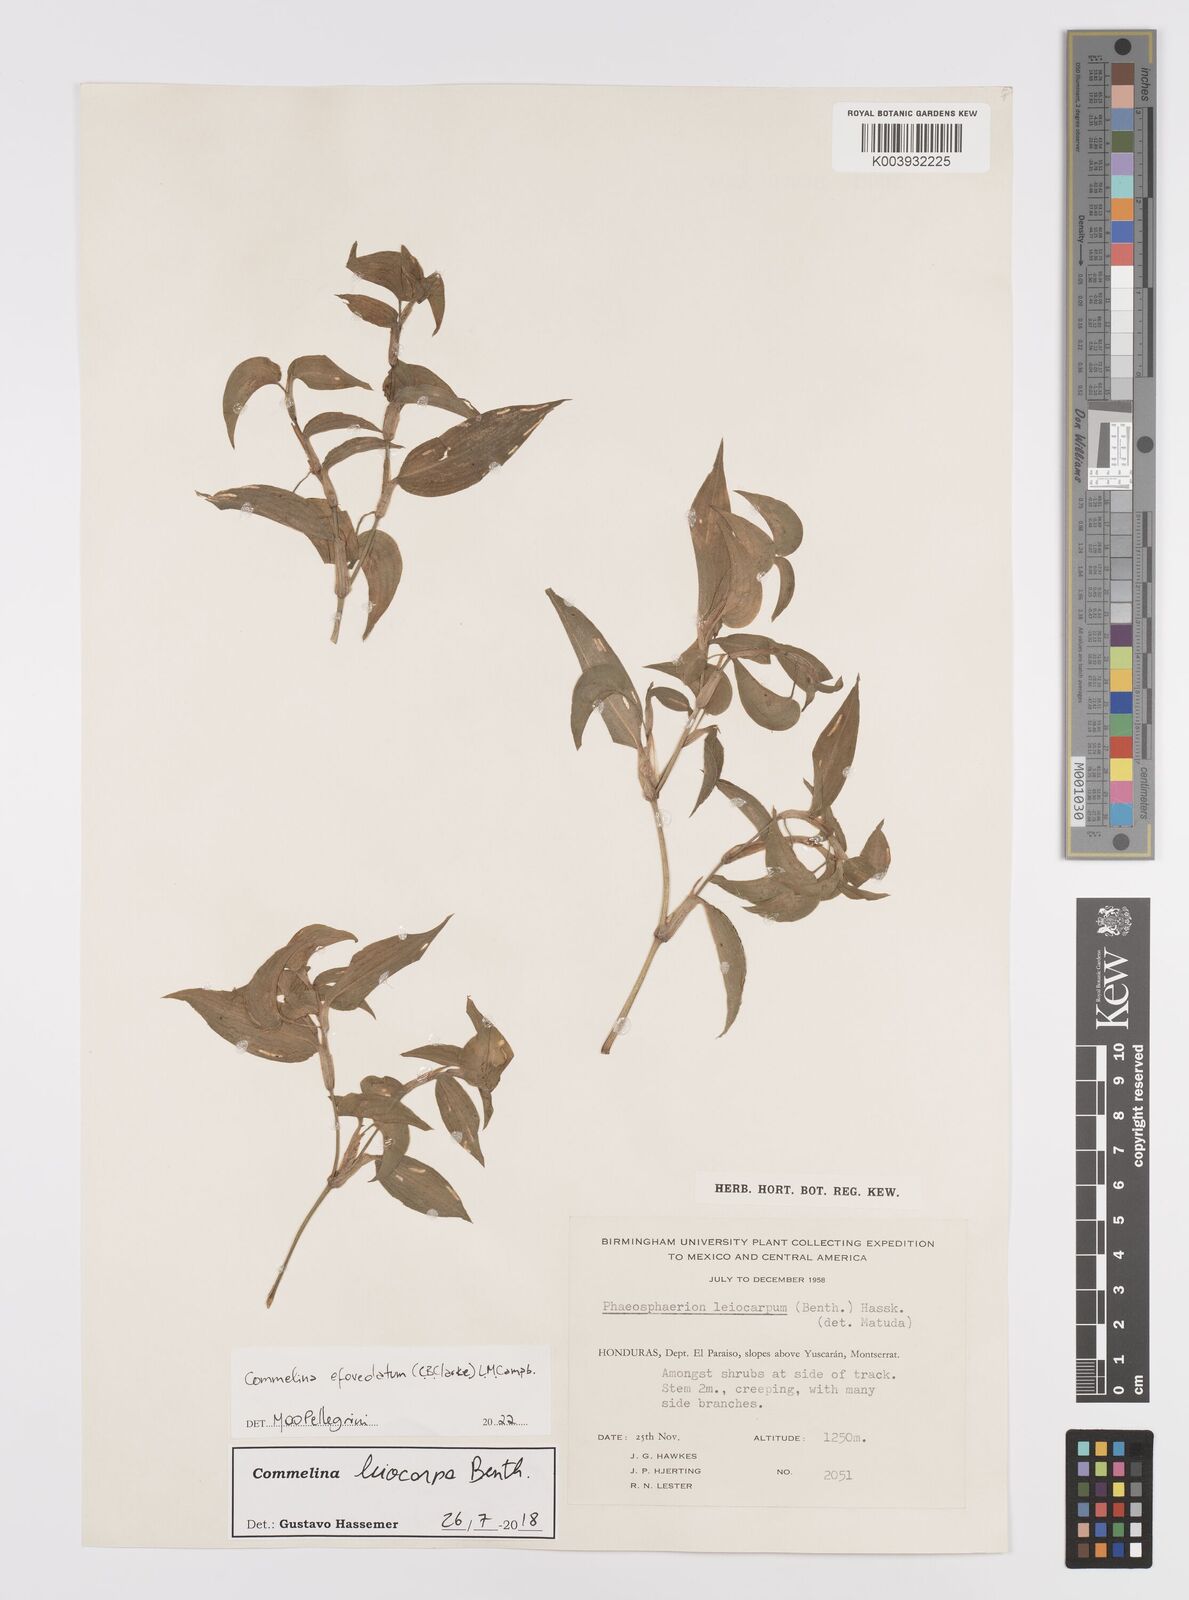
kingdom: Plantae
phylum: Tracheophyta
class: Liliopsida
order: Commelinales
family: Commelinaceae
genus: Commelina
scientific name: Commelina leiocarpa
